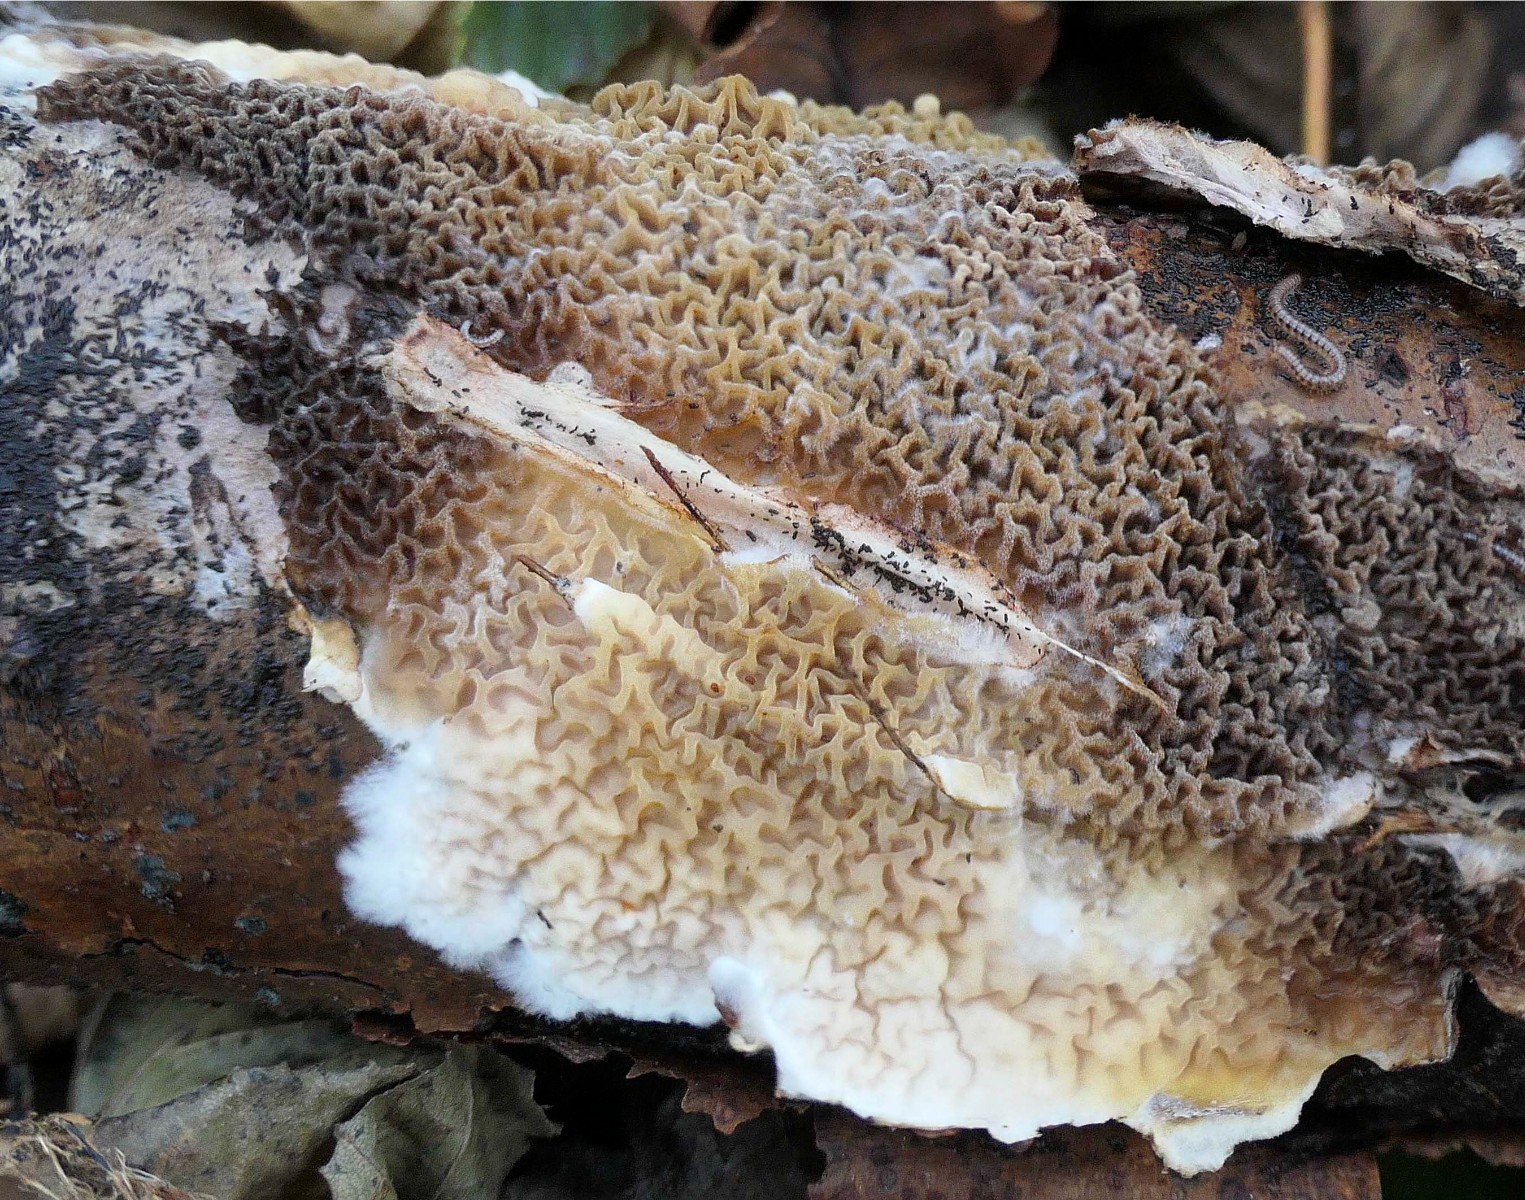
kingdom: Fungi
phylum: Basidiomycota
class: Agaricomycetes
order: Boletales
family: Serpulaceae
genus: Serpula
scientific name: Serpula himantioides
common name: tyndkødet hussvamp
